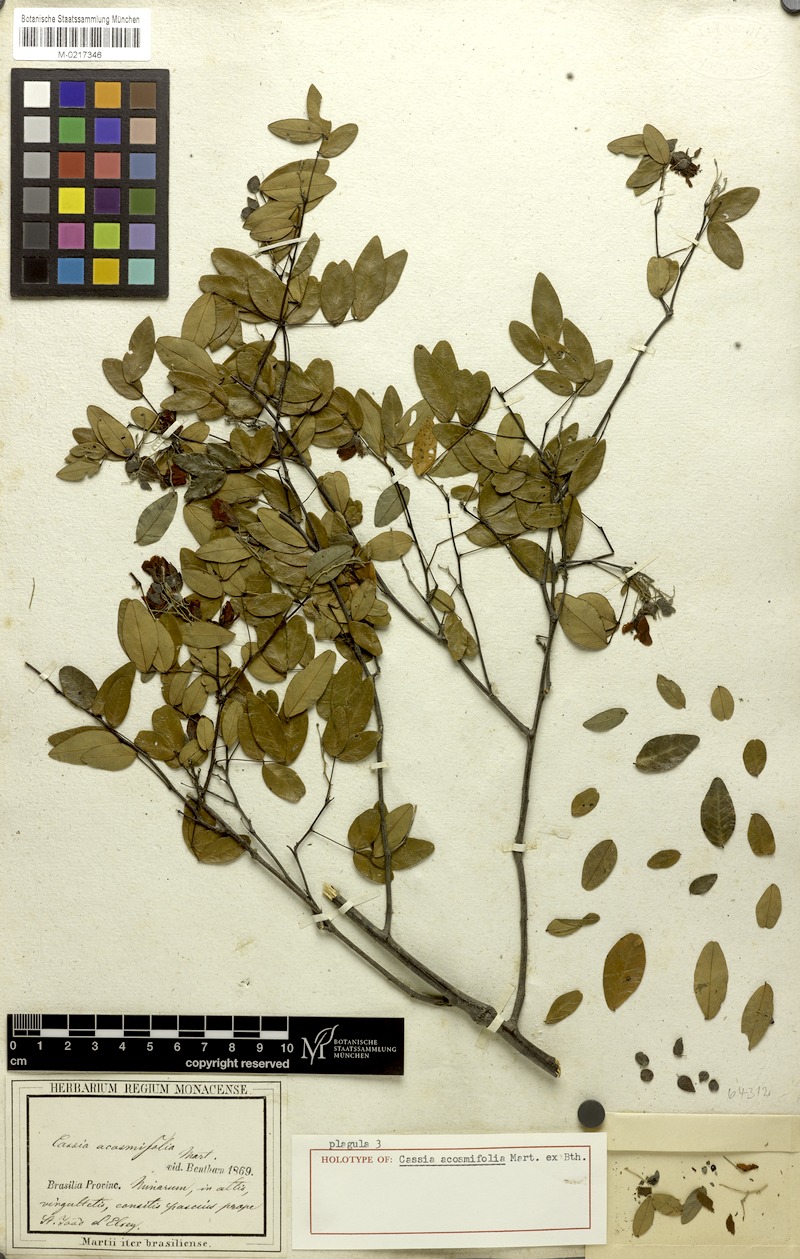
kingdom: Plantae
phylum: Tracheophyta
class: Magnoliopsida
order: Fabales
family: Fabaceae
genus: Chamaecrista
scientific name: Chamaecrista acosmifolia
